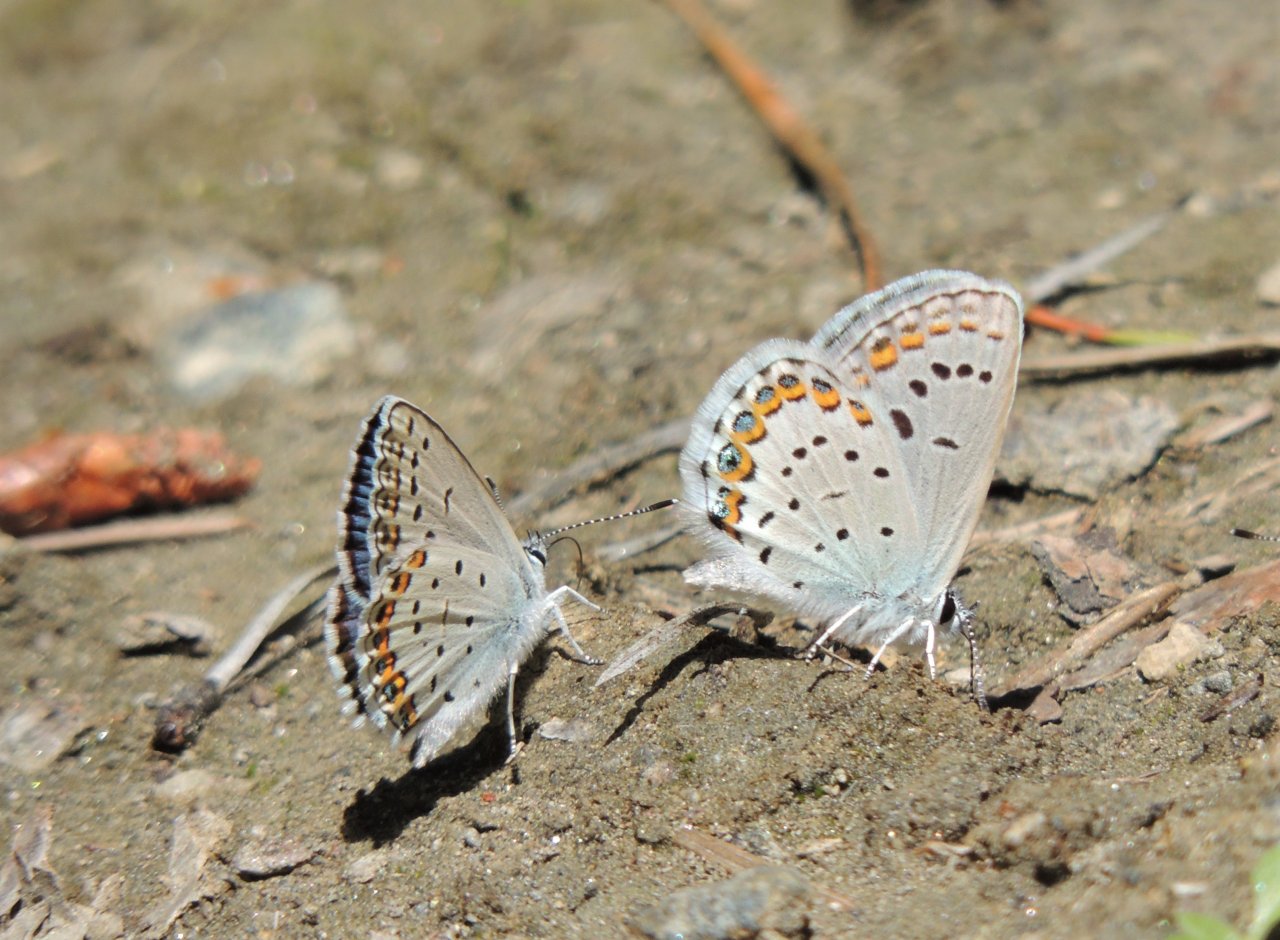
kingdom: Animalia
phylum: Arthropoda
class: Insecta
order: Lepidoptera
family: Lycaenidae
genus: Lycaeides
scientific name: Lycaeides melissa
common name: Melissa Blue
